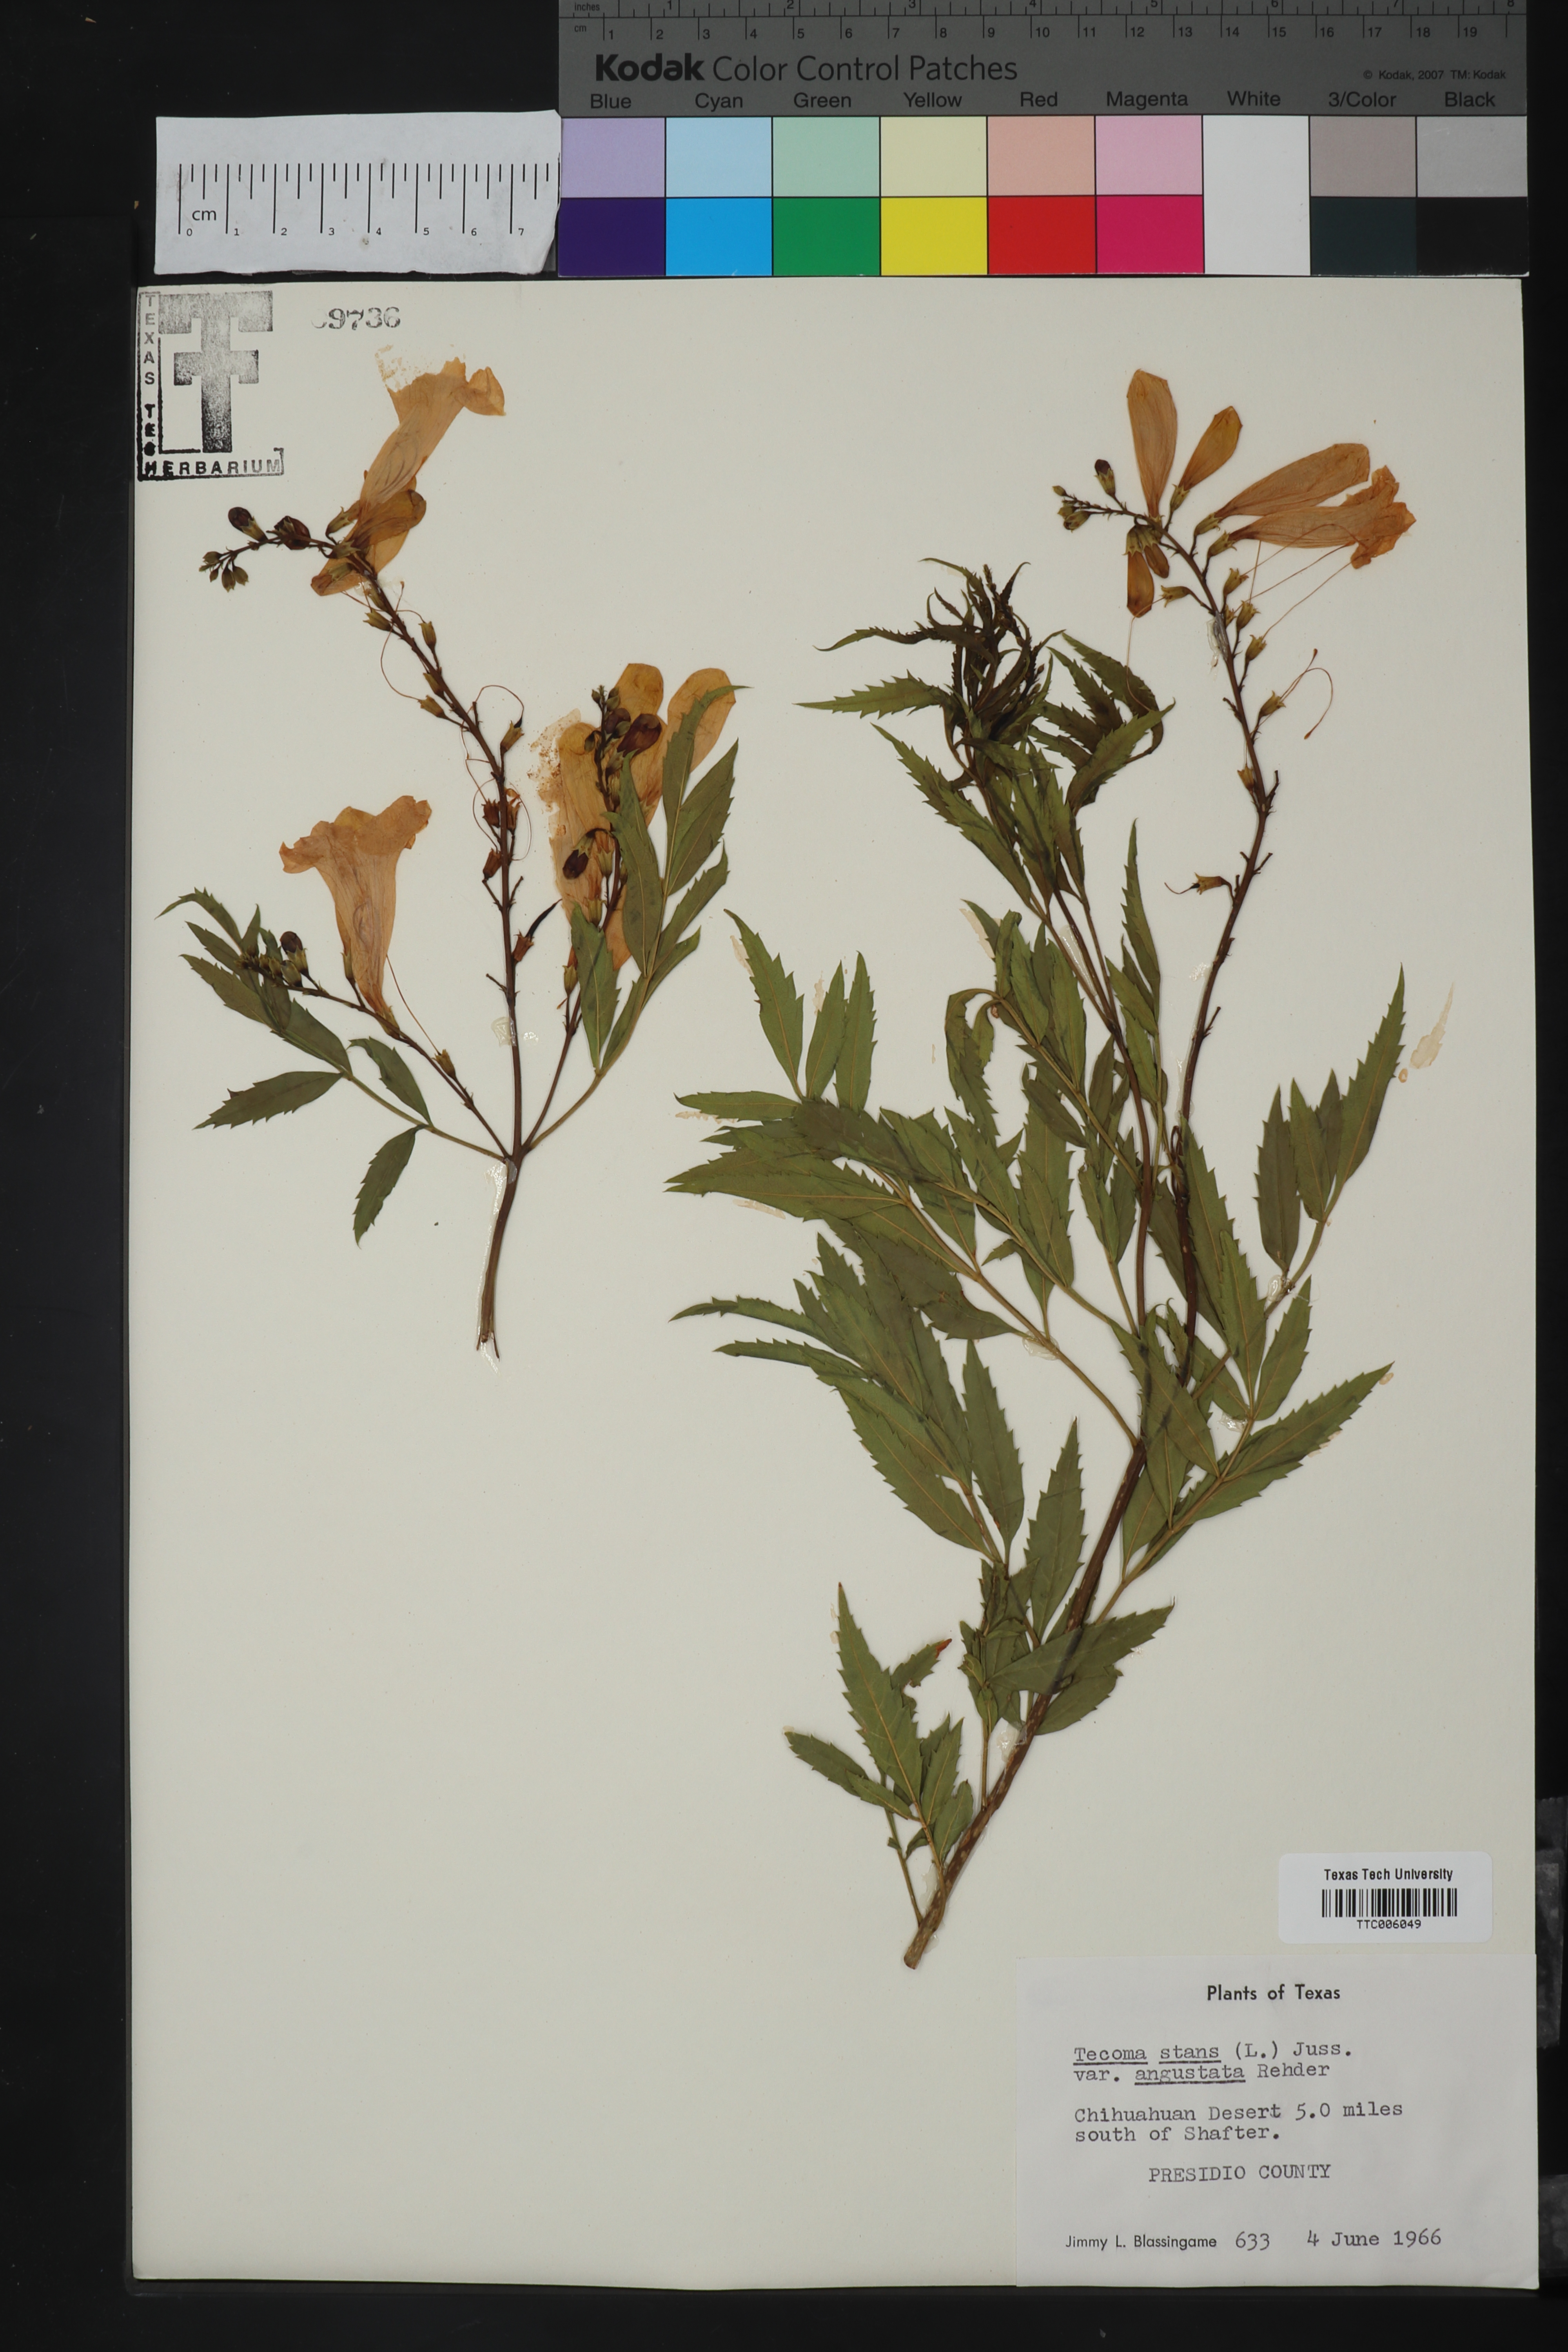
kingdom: Plantae
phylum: Tracheophyta
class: Magnoliopsida
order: Lamiales
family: Bignoniaceae
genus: Tecoma
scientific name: Tecoma stans
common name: Yellow trumpetbush
